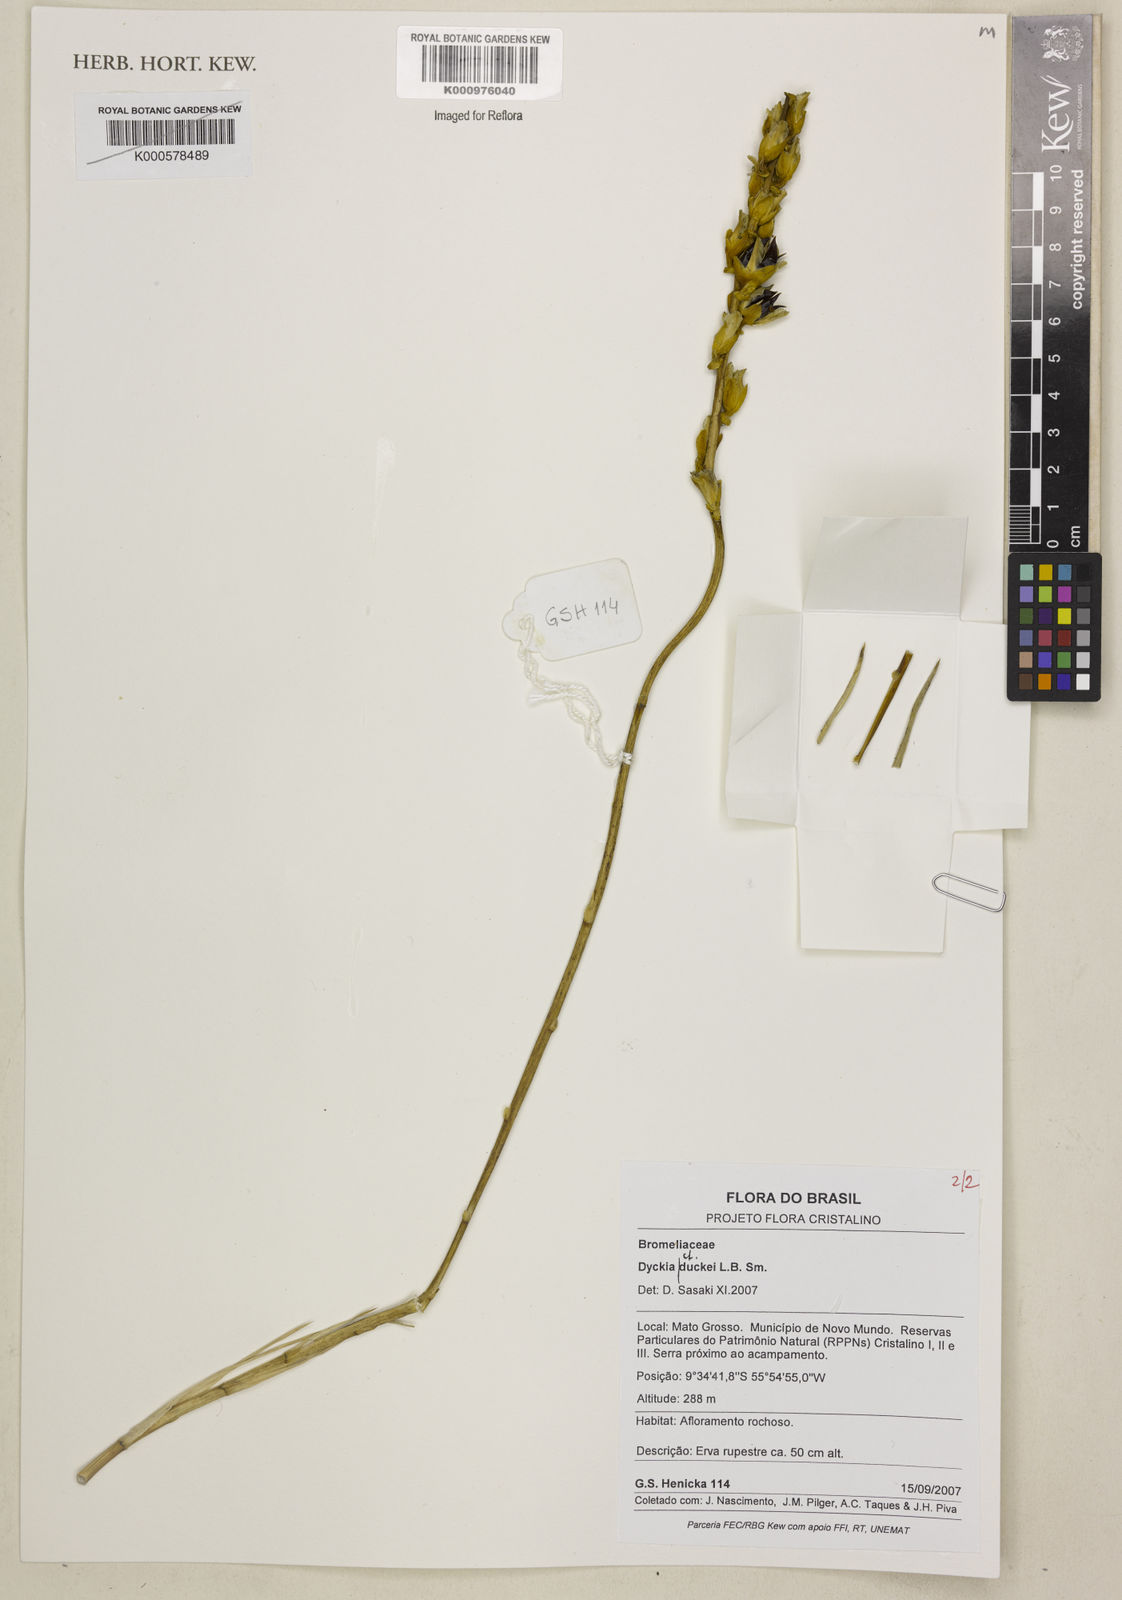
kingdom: Plantae
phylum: Tracheophyta
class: Liliopsida
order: Poales
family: Bromeliaceae
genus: Dyckia
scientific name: Dyckia duckei
